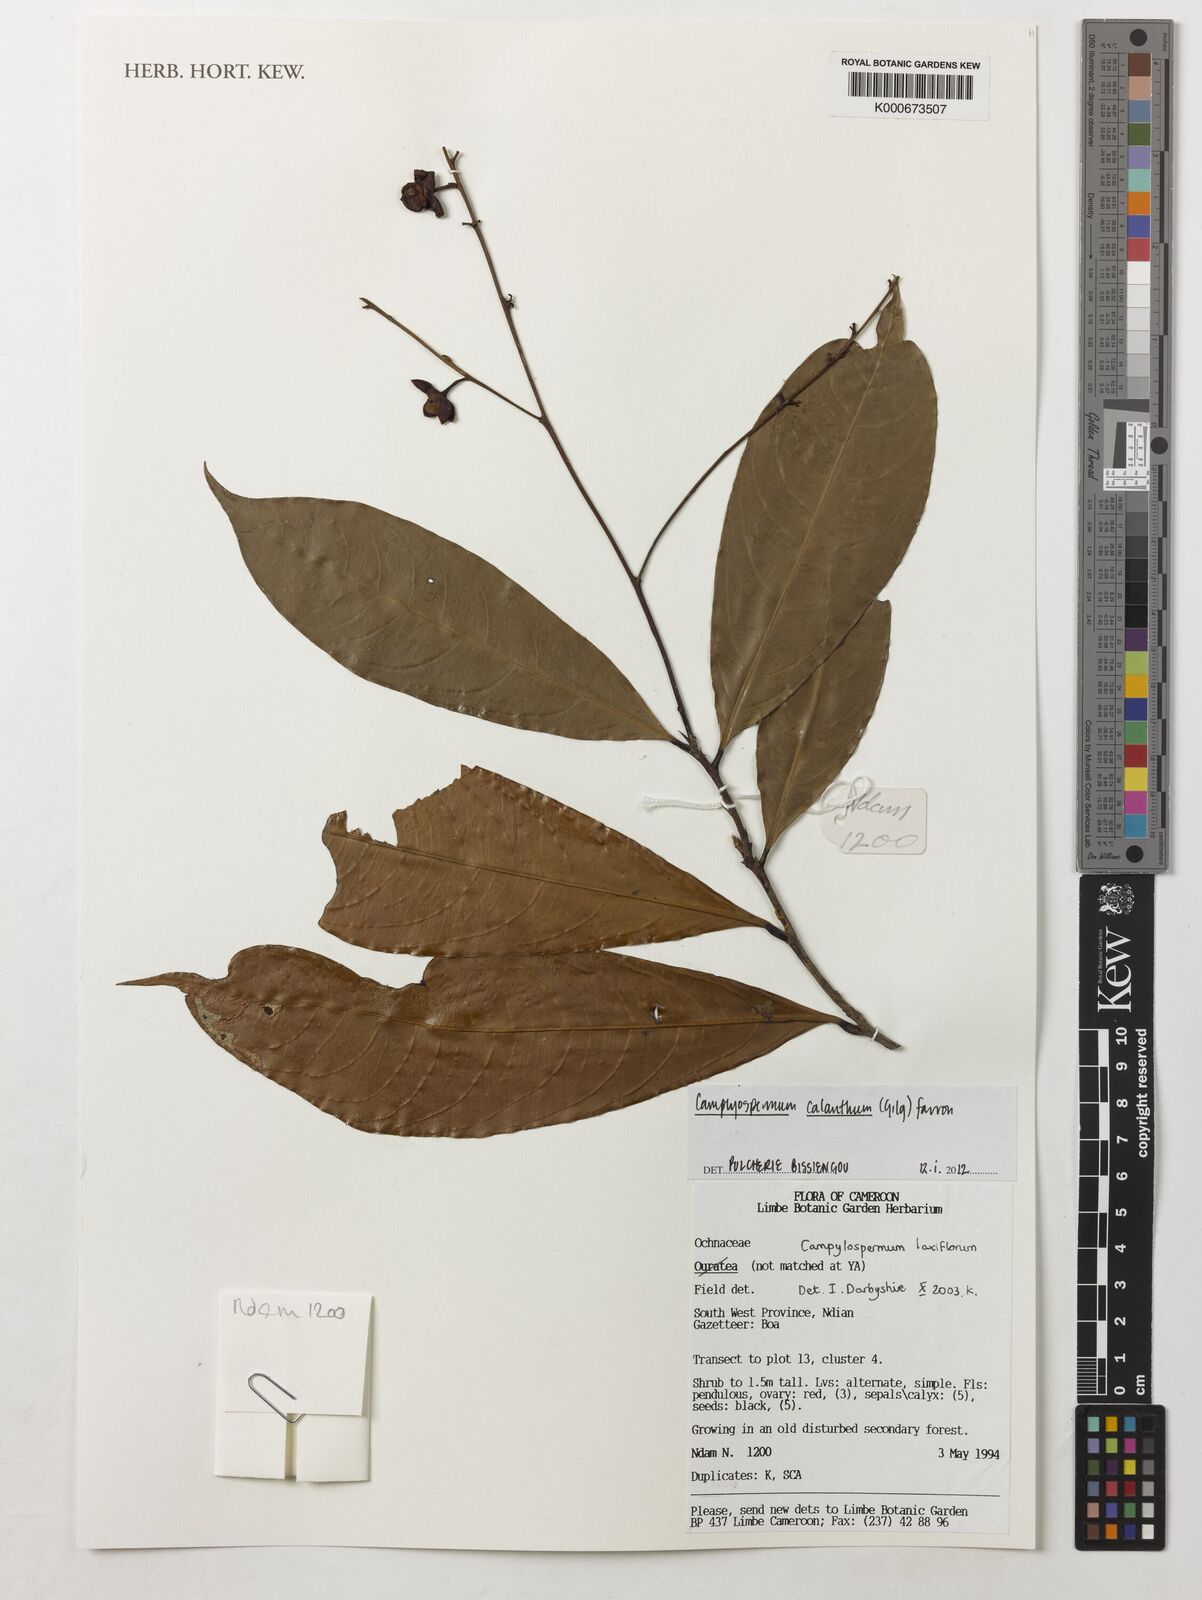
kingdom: Plantae
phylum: Tracheophyta
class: Magnoliopsida
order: Malpighiales
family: Ochnaceae
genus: Campylospermum
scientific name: Campylospermum calanthum
